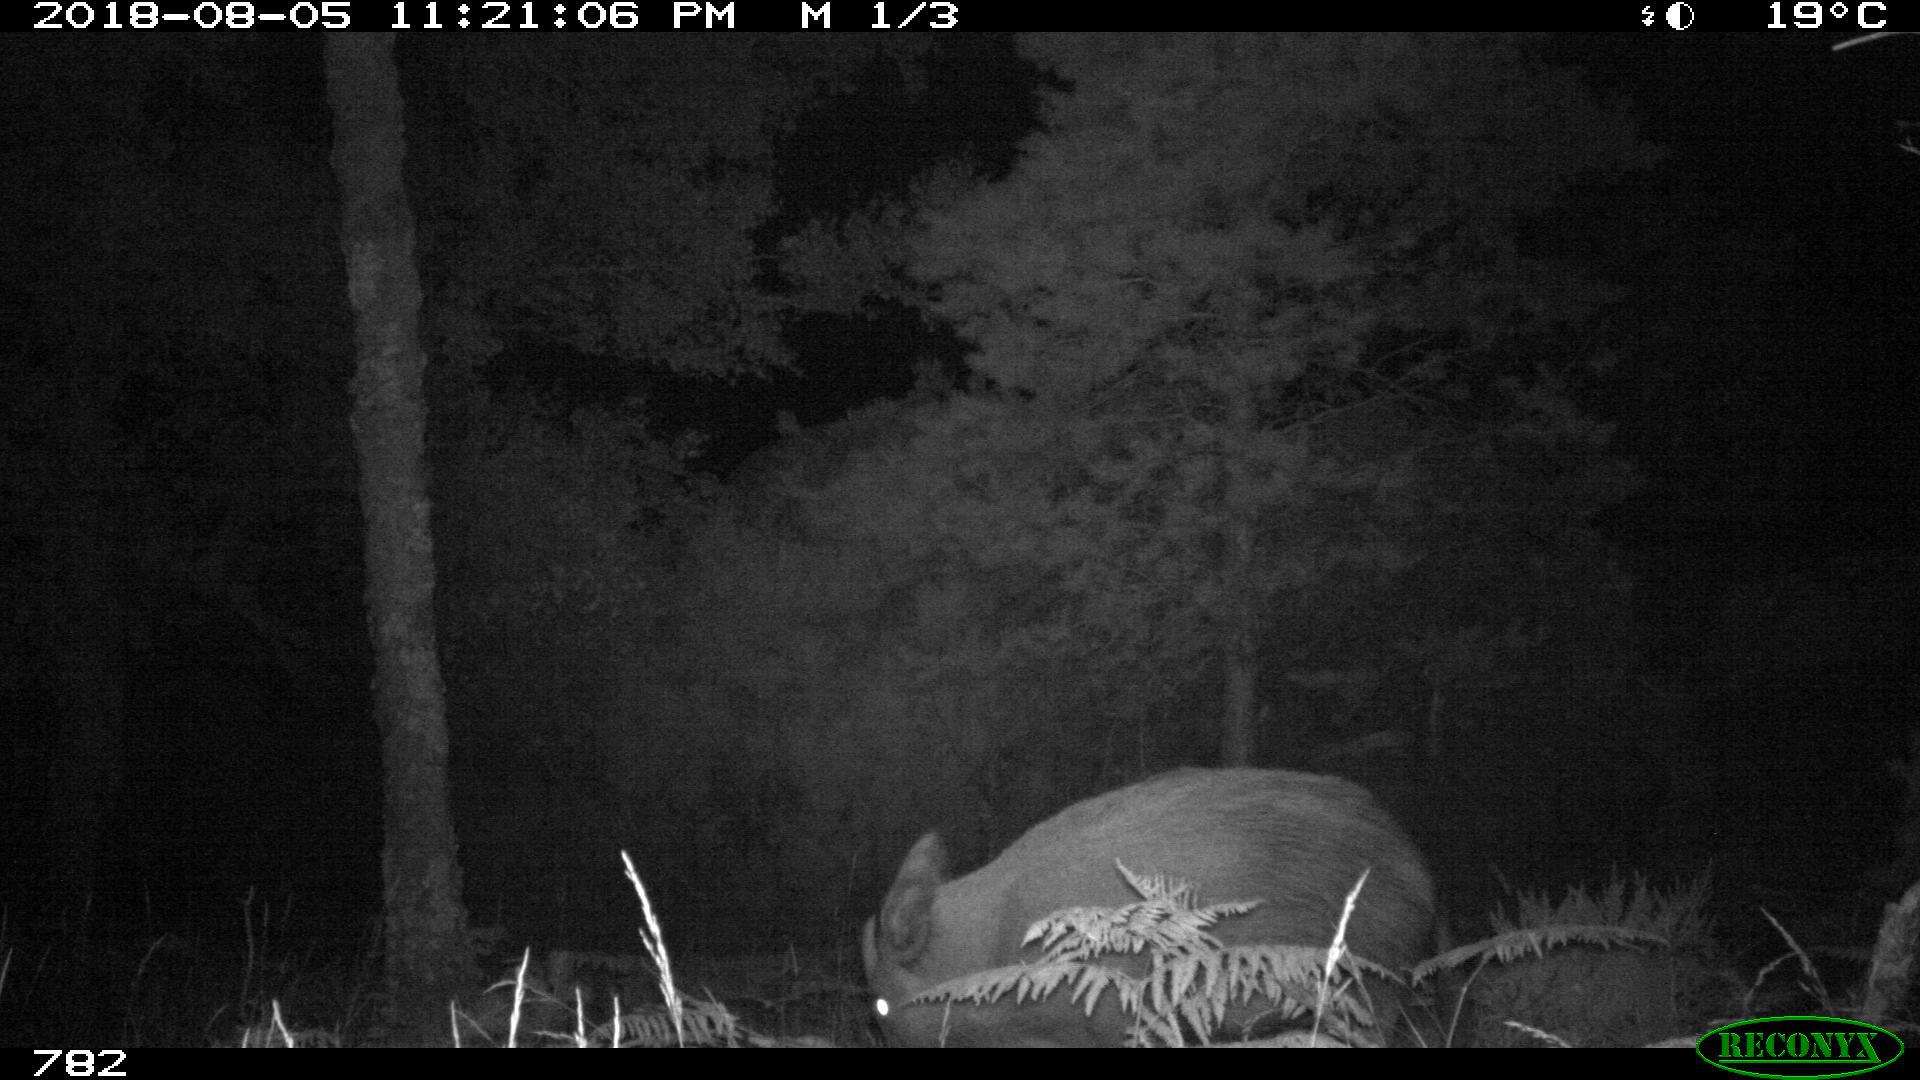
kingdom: Animalia
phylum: Chordata
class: Mammalia
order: Artiodactyla
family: Suidae
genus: Sus
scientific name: Sus scrofa
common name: Wild boar
